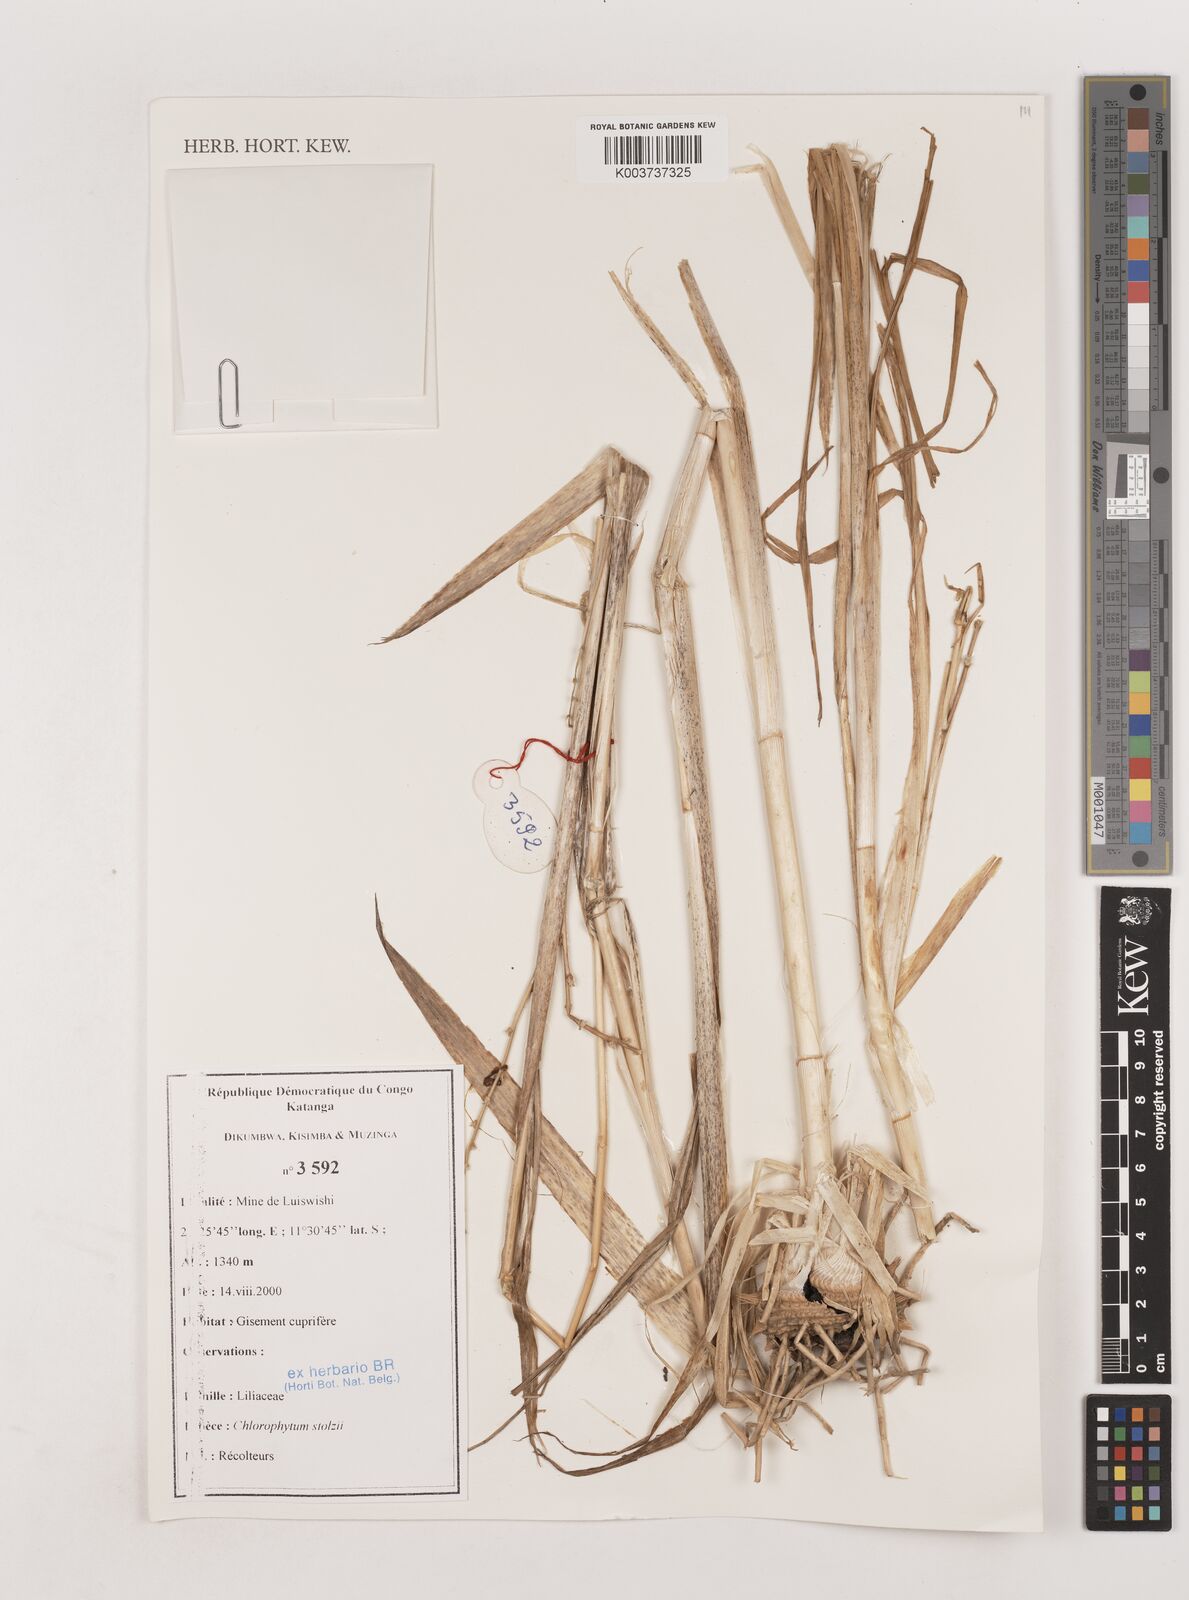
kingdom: Plantae
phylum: Tracheophyta
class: Liliopsida
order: Asparagales
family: Asparagaceae
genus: Chlorophytum
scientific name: Chlorophytum monophyllum
